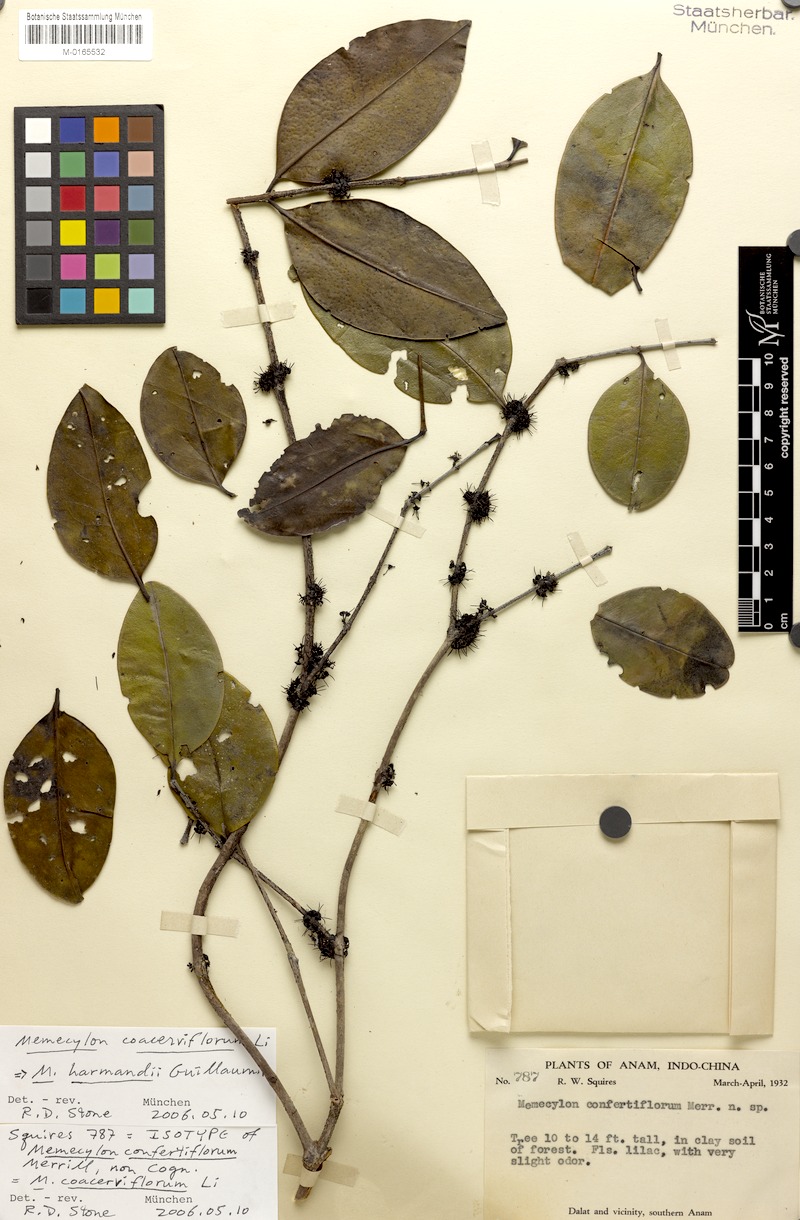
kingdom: Plantae
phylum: Tracheophyta
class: Magnoliopsida
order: Myrtales
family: Melastomataceae
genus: Memecylon
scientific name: Memecylon harmandii
